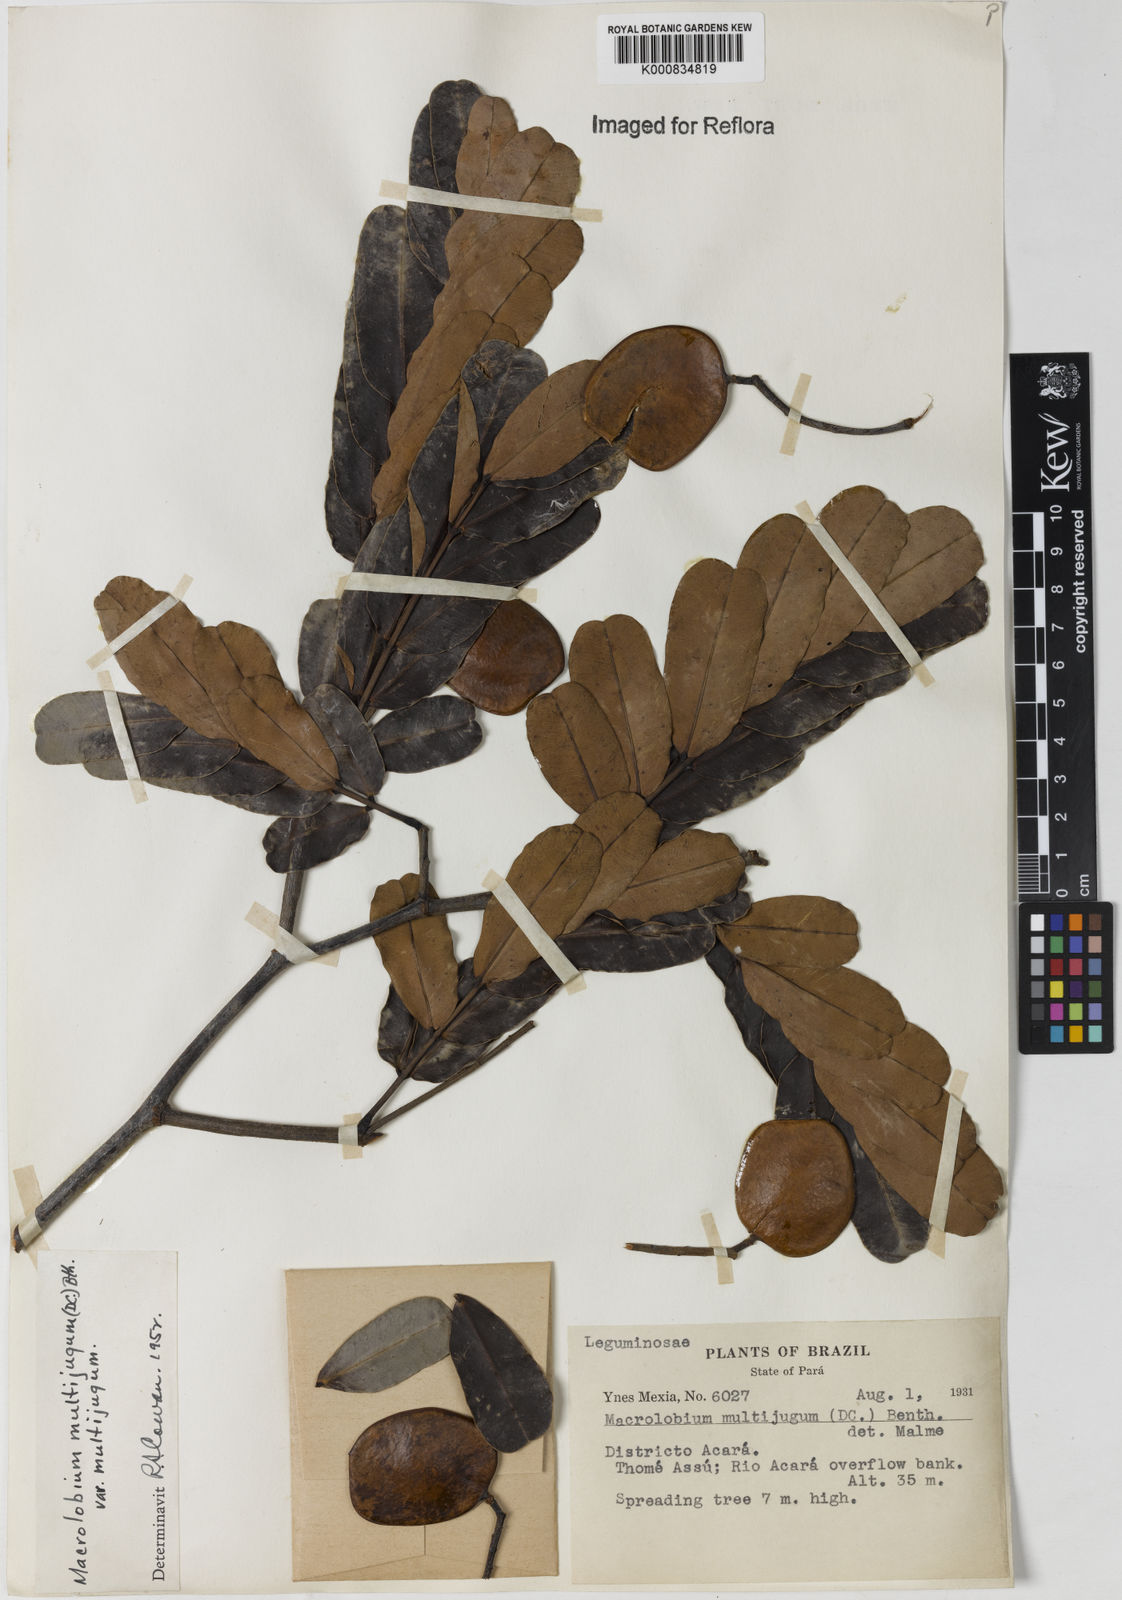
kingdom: Plantae
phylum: Tracheophyta
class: Magnoliopsida
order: Fabales
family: Fabaceae
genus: Macrolobium
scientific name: Macrolobium multijugum
